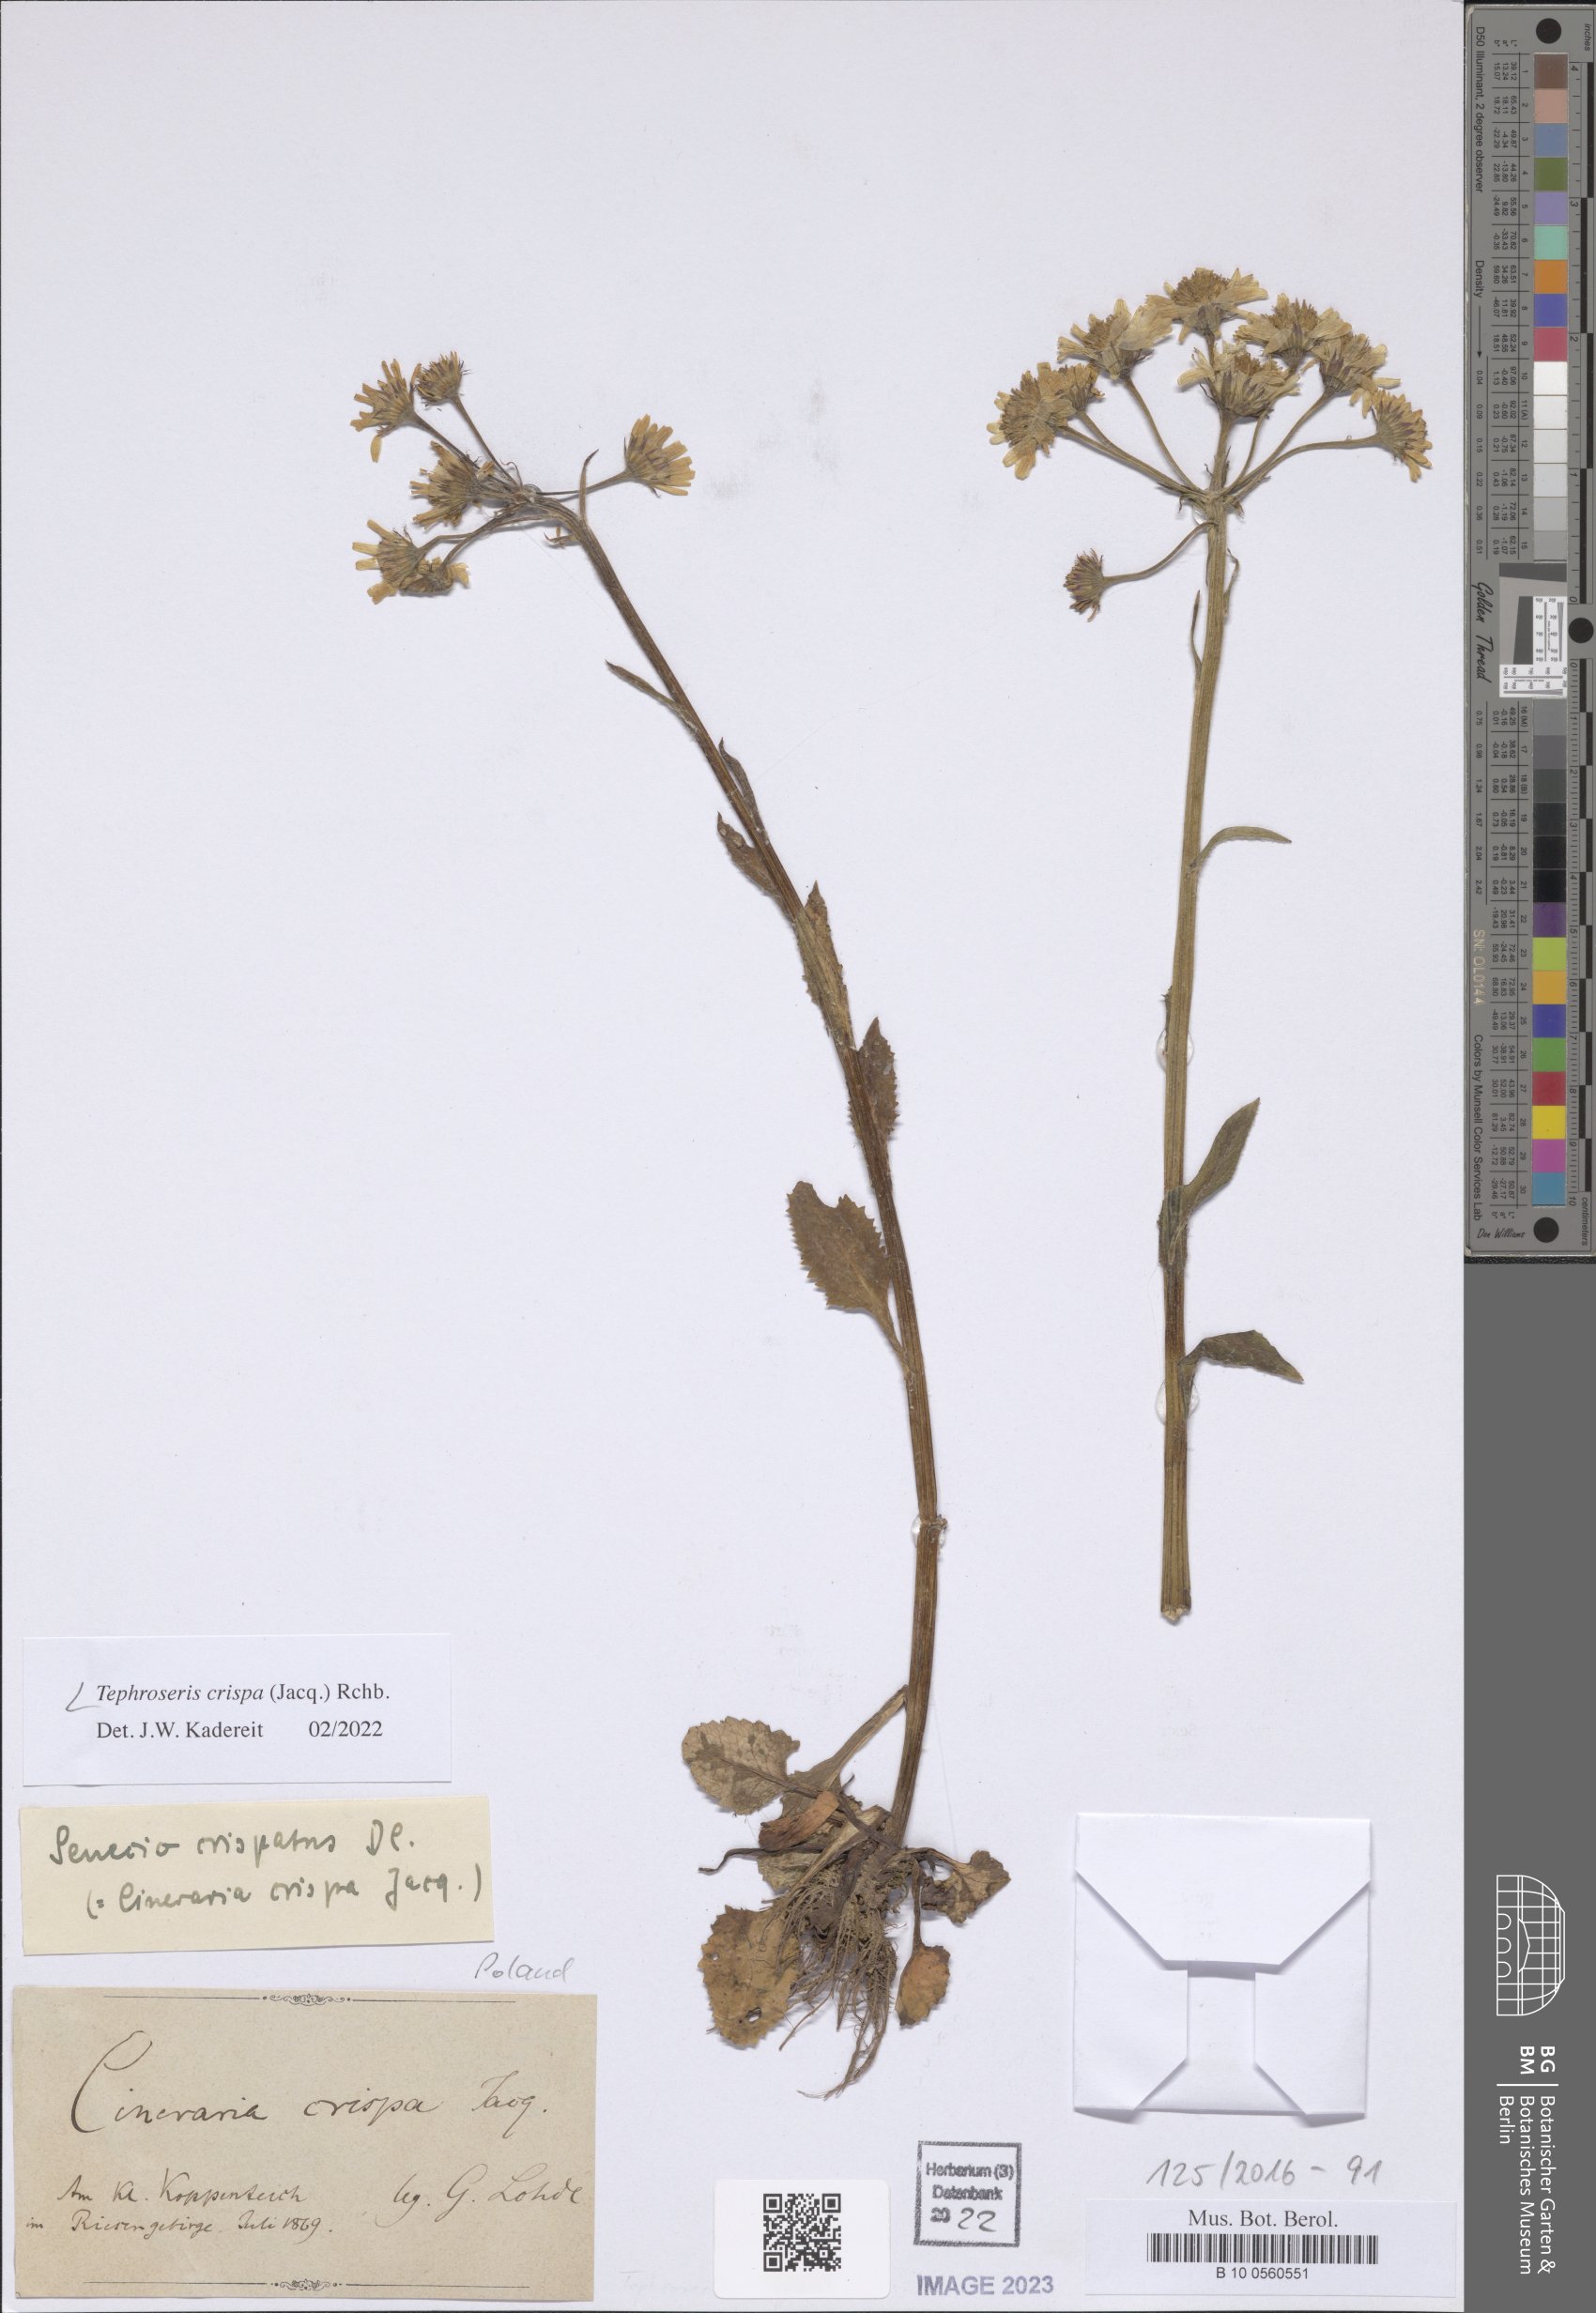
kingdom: Plantae
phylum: Tracheophyta
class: Magnoliopsida
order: Asterales
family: Asteraceae
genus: Tephroseris
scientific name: Tephroseris crispa
